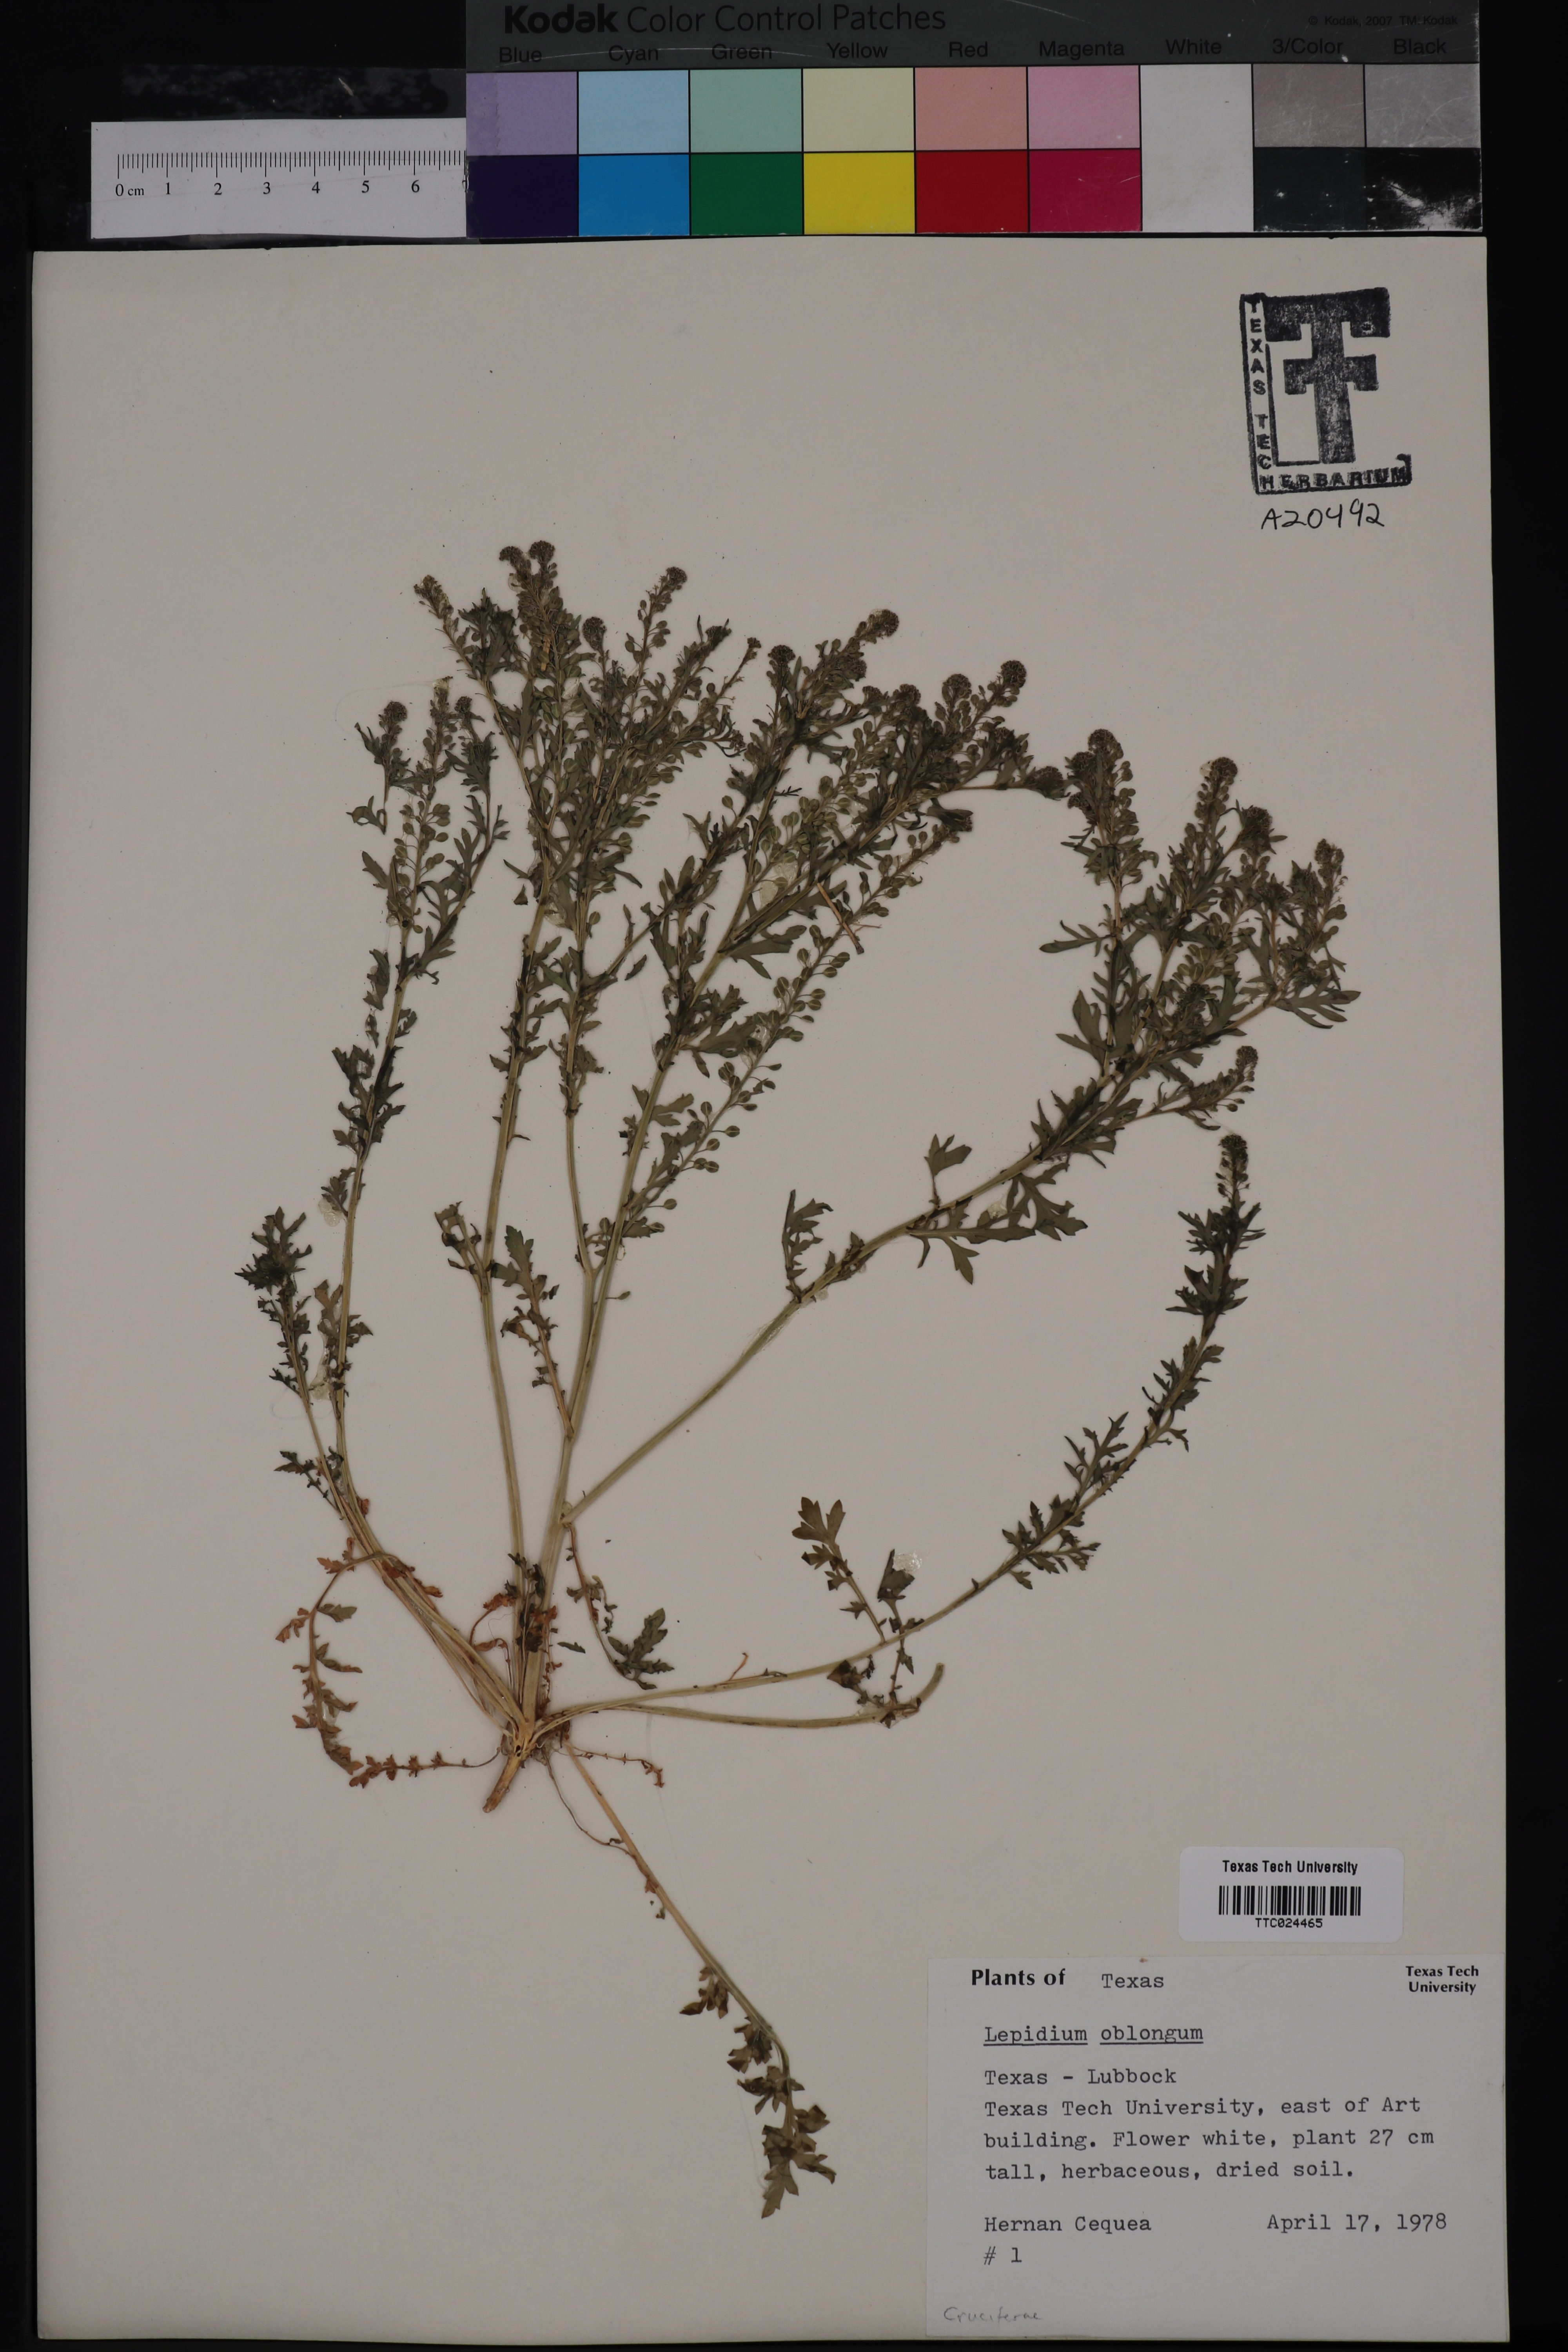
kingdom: Plantae
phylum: Tracheophyta
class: Magnoliopsida
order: Brassicales
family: Brassicaceae
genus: Lepidium
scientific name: Lepidium oblongum
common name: Veiny pepperweed
